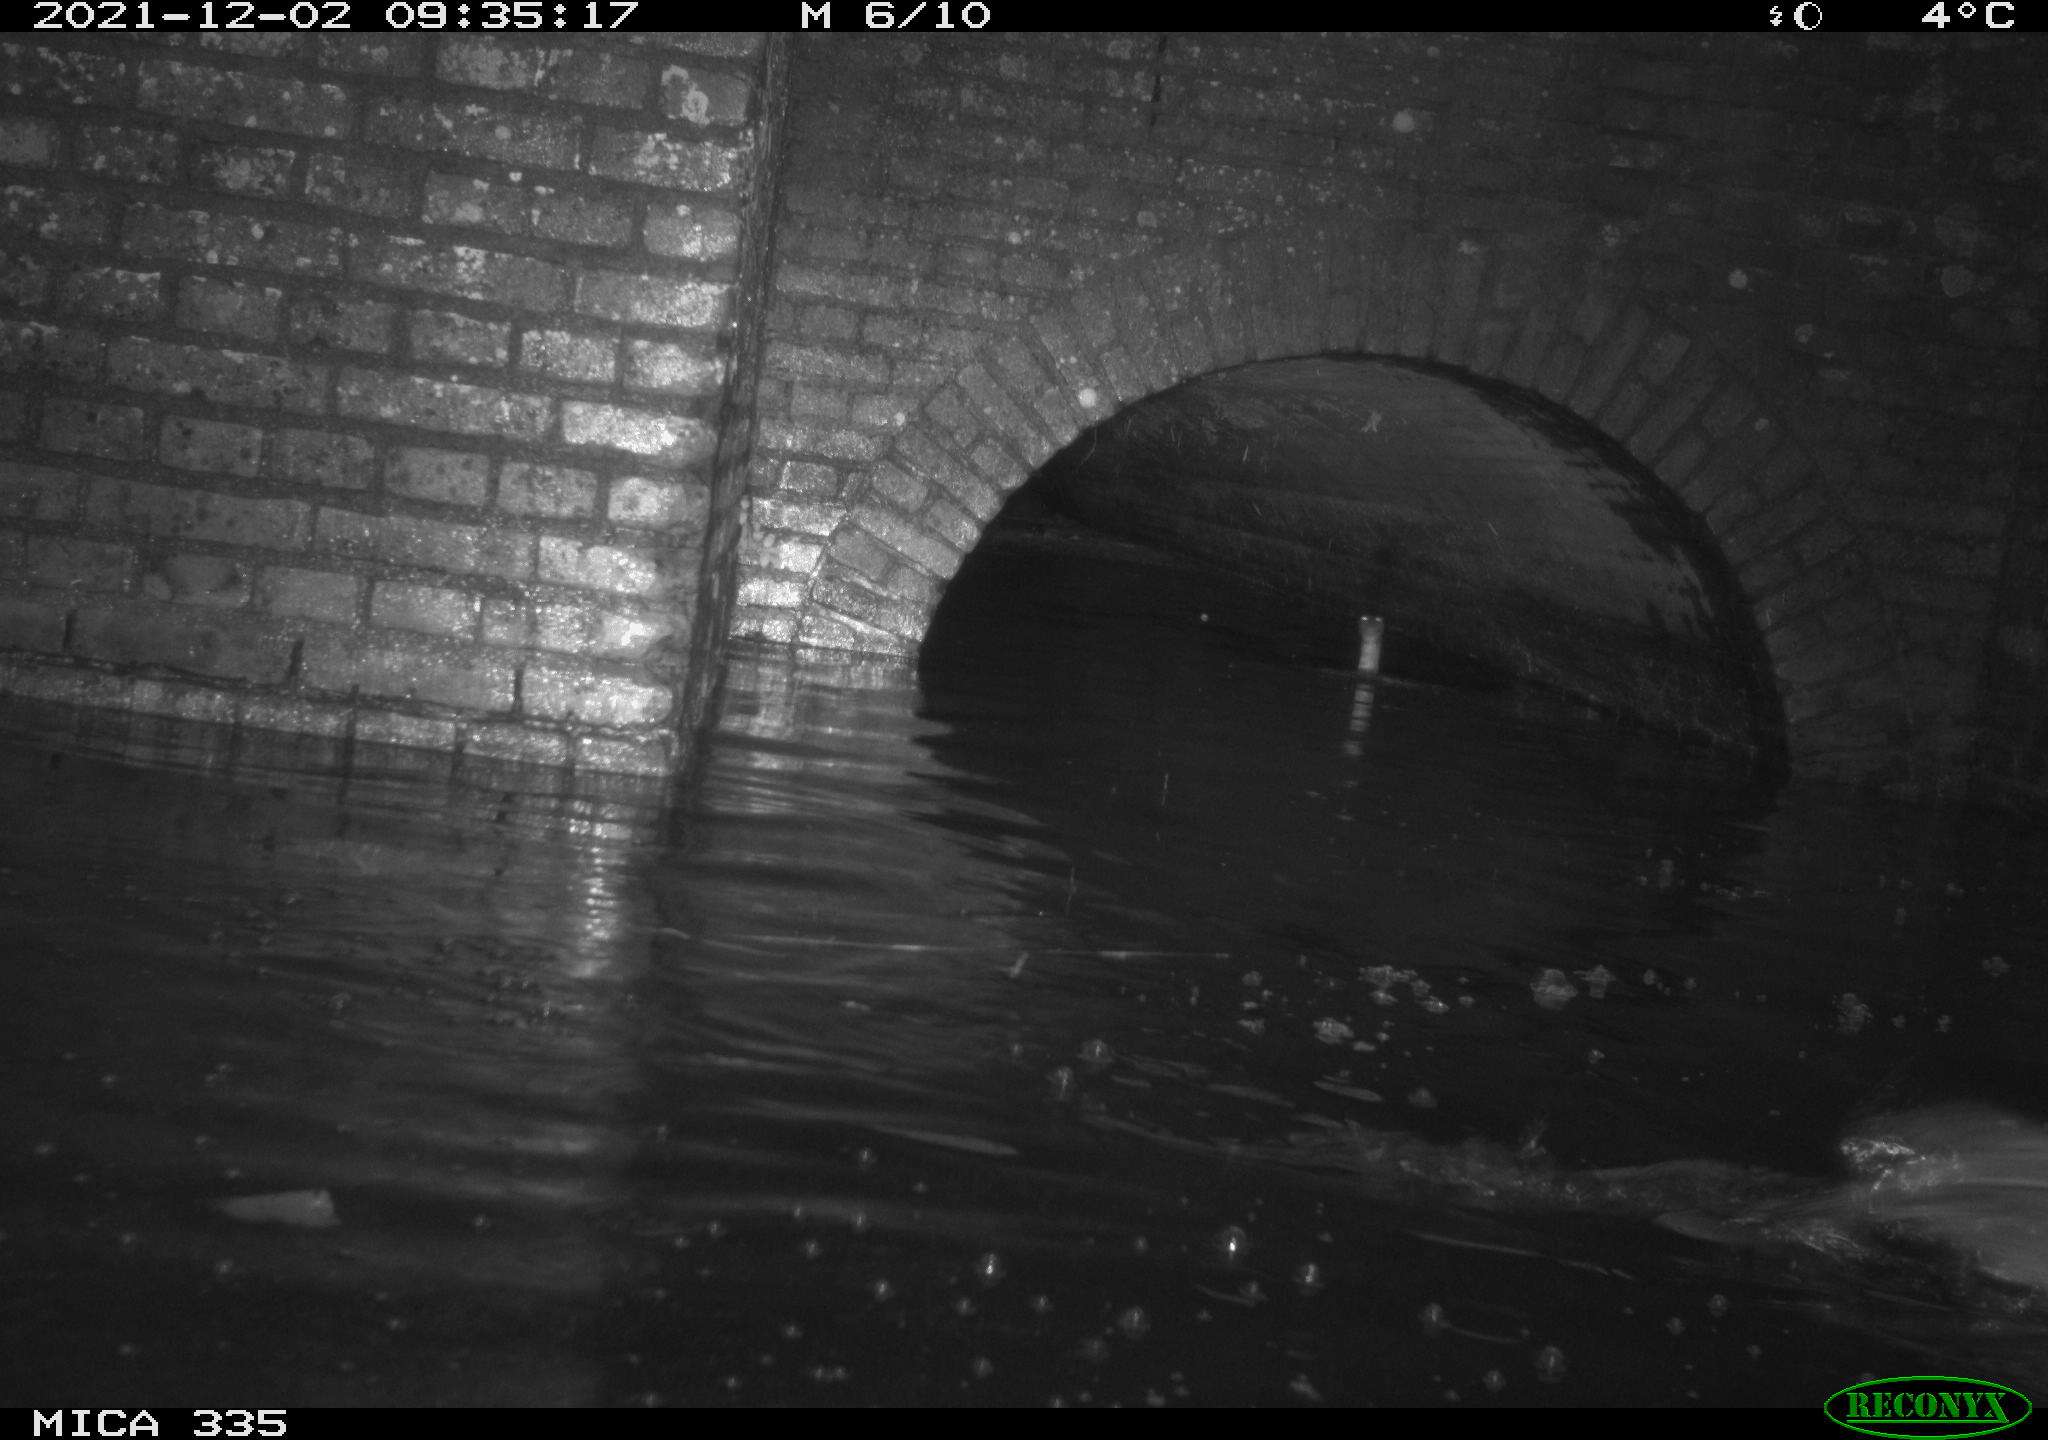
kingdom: Animalia
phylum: Chordata
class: Aves
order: Suliformes
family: Phalacrocoracidae
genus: Phalacrocorax
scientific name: Phalacrocorax carbo
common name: Great cormorant
